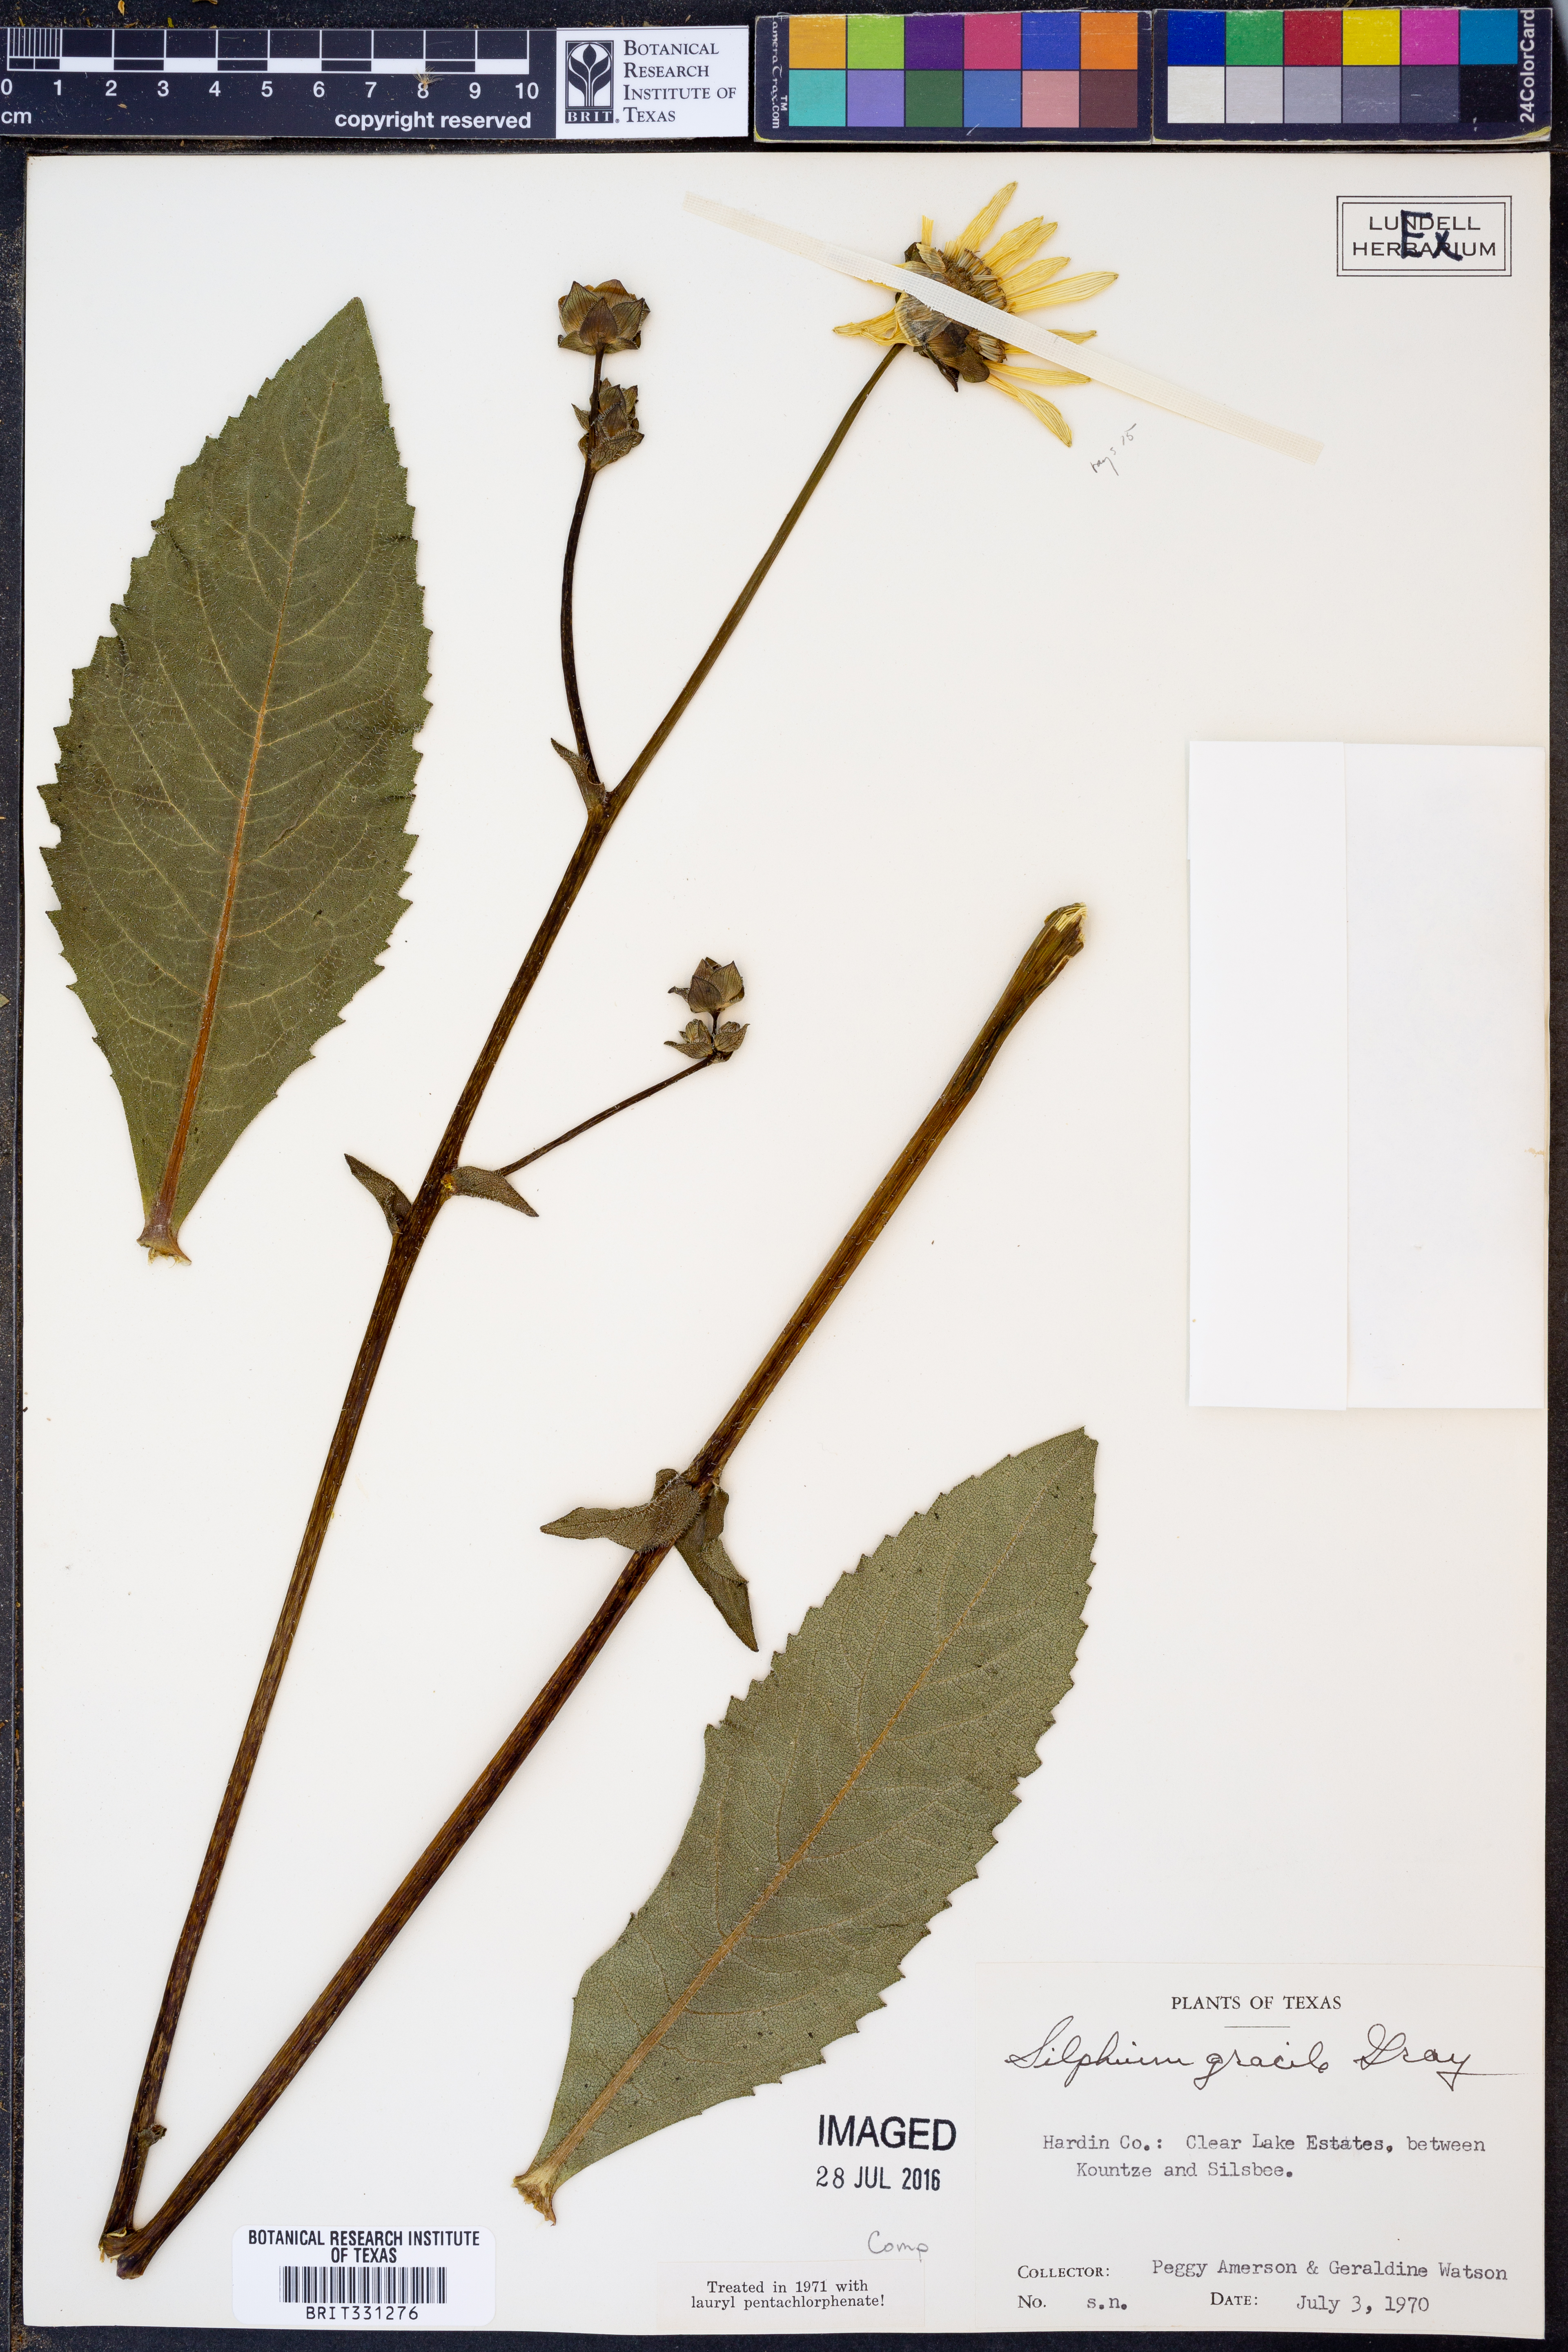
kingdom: Plantae
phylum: Tracheophyta
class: Magnoliopsida
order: Asterales
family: Asteraceae
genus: Silphium
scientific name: Silphium radula
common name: Roughleaf rosinweed
